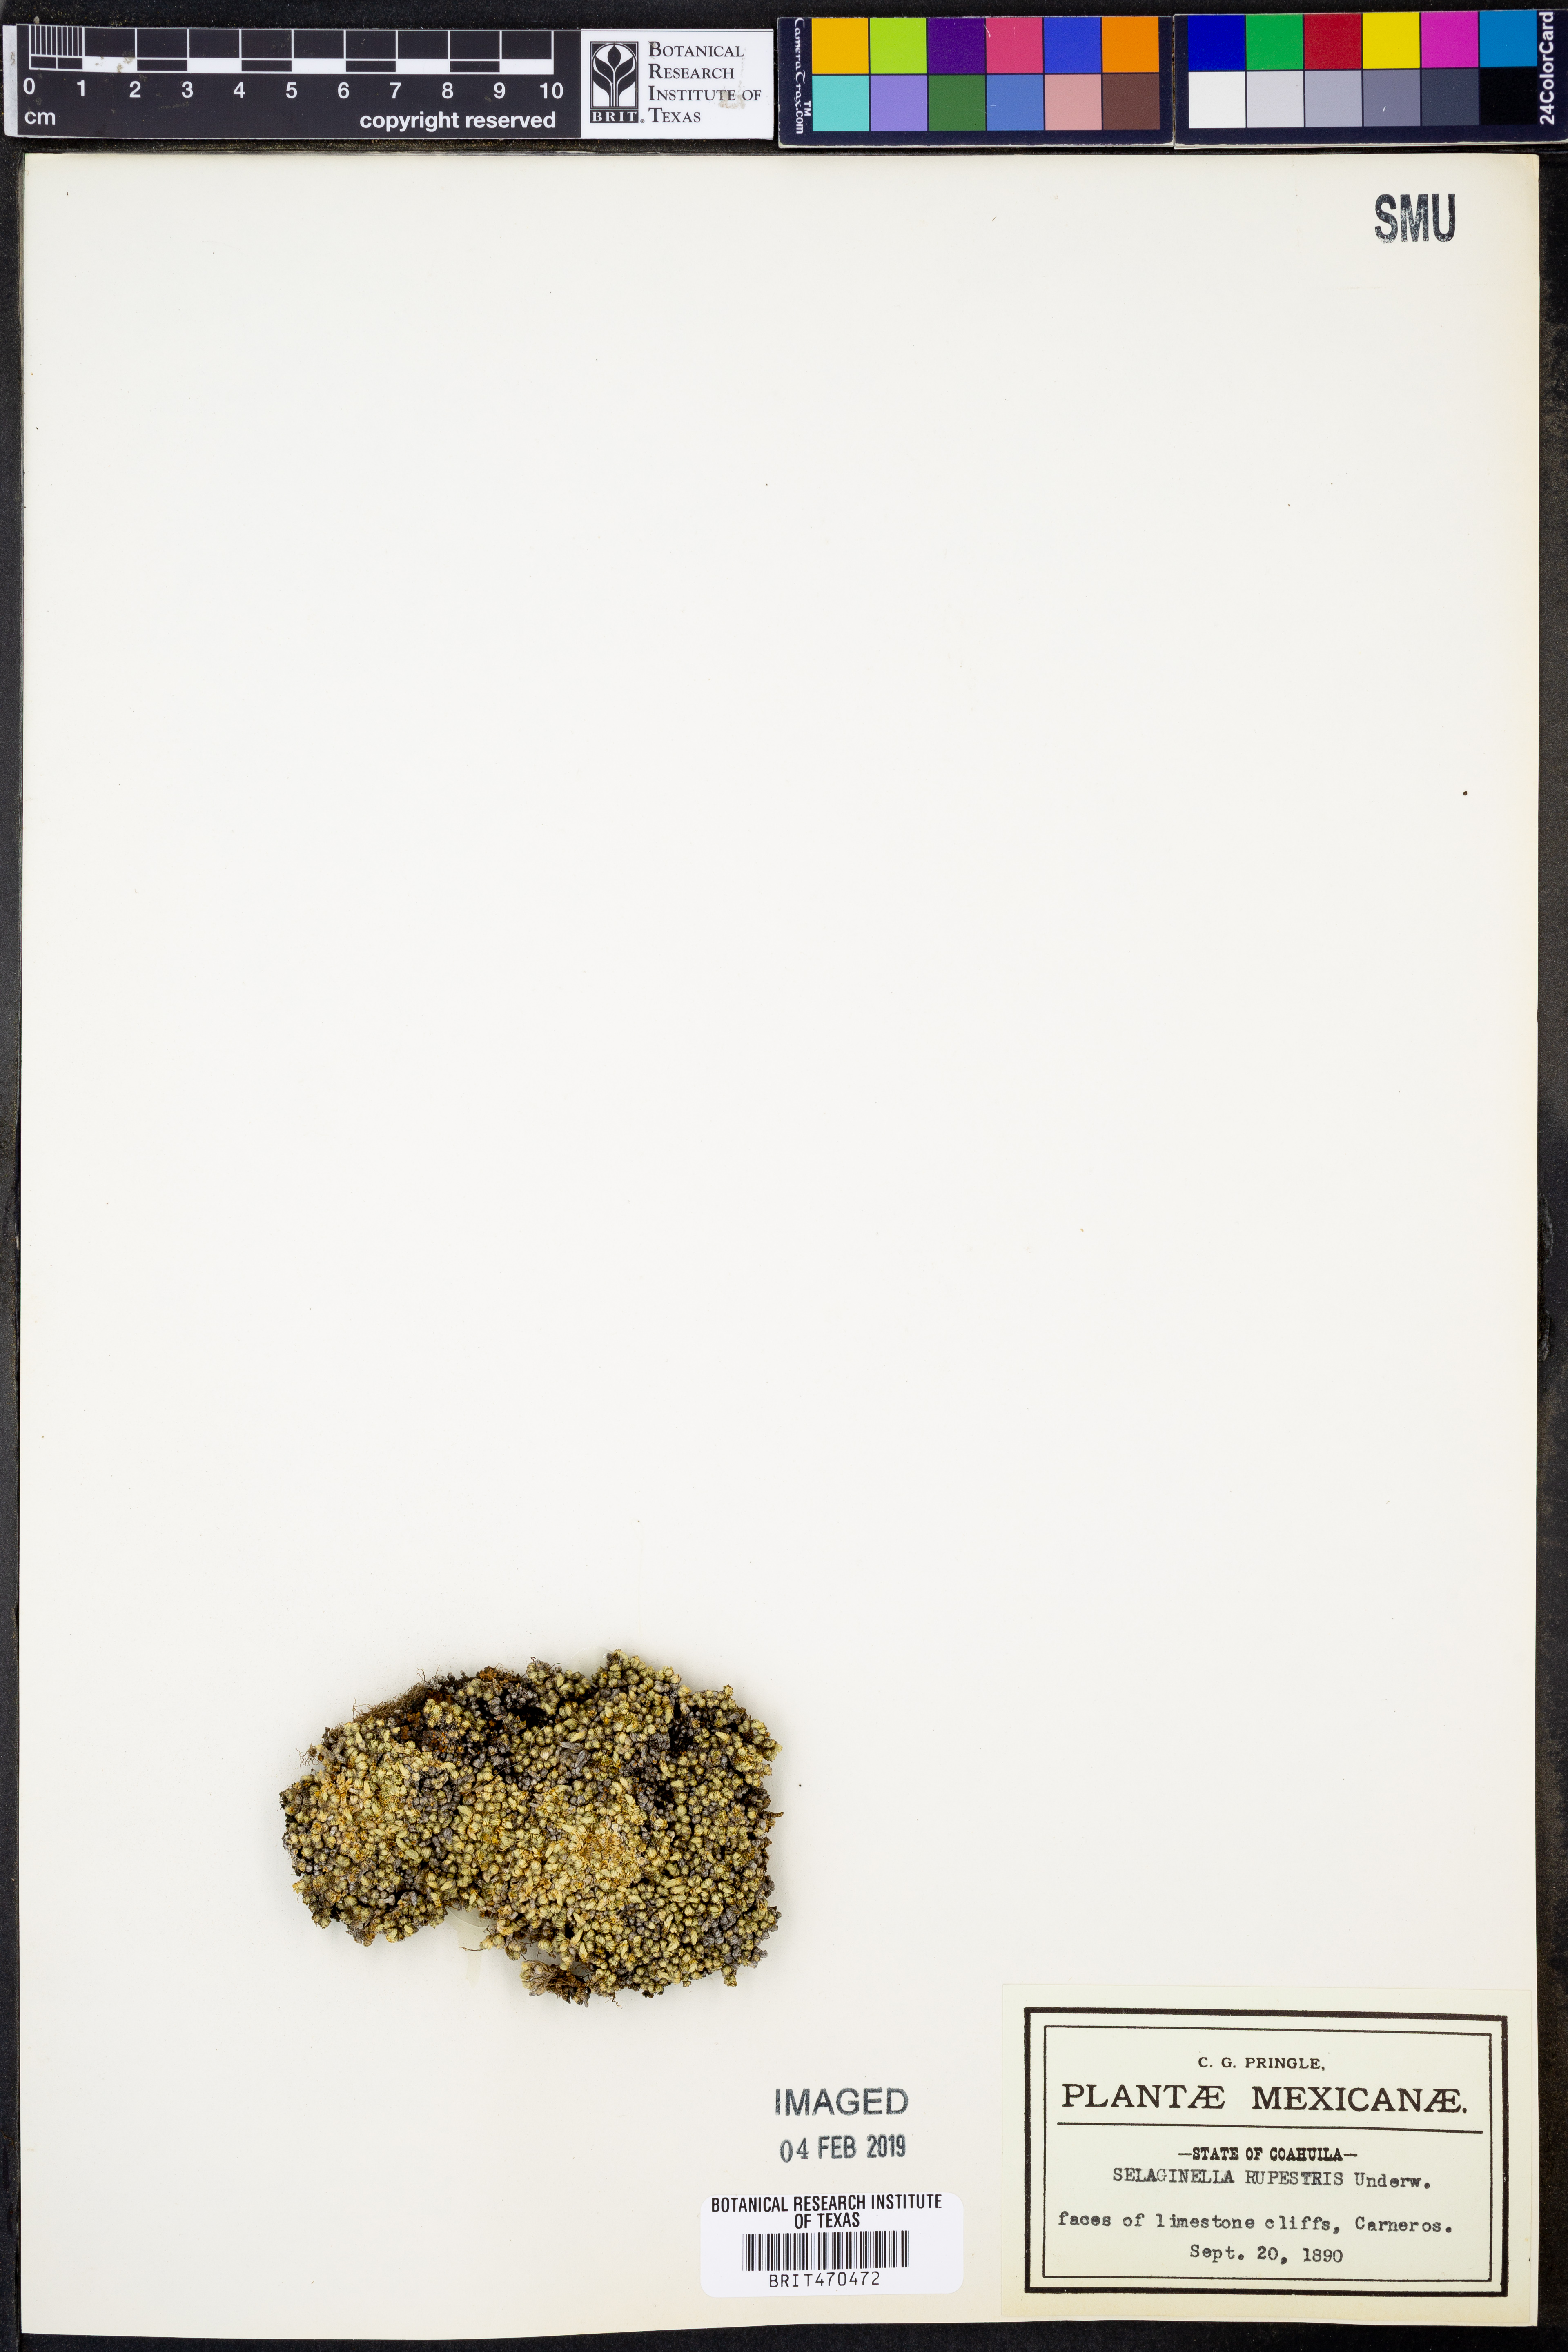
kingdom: Plantae
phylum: Tracheophyta
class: Lycopodiopsida
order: Selaginellales
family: Selaginellaceae
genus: Selaginella
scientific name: Selaginella rupestris
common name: Dwarf spikemoss
